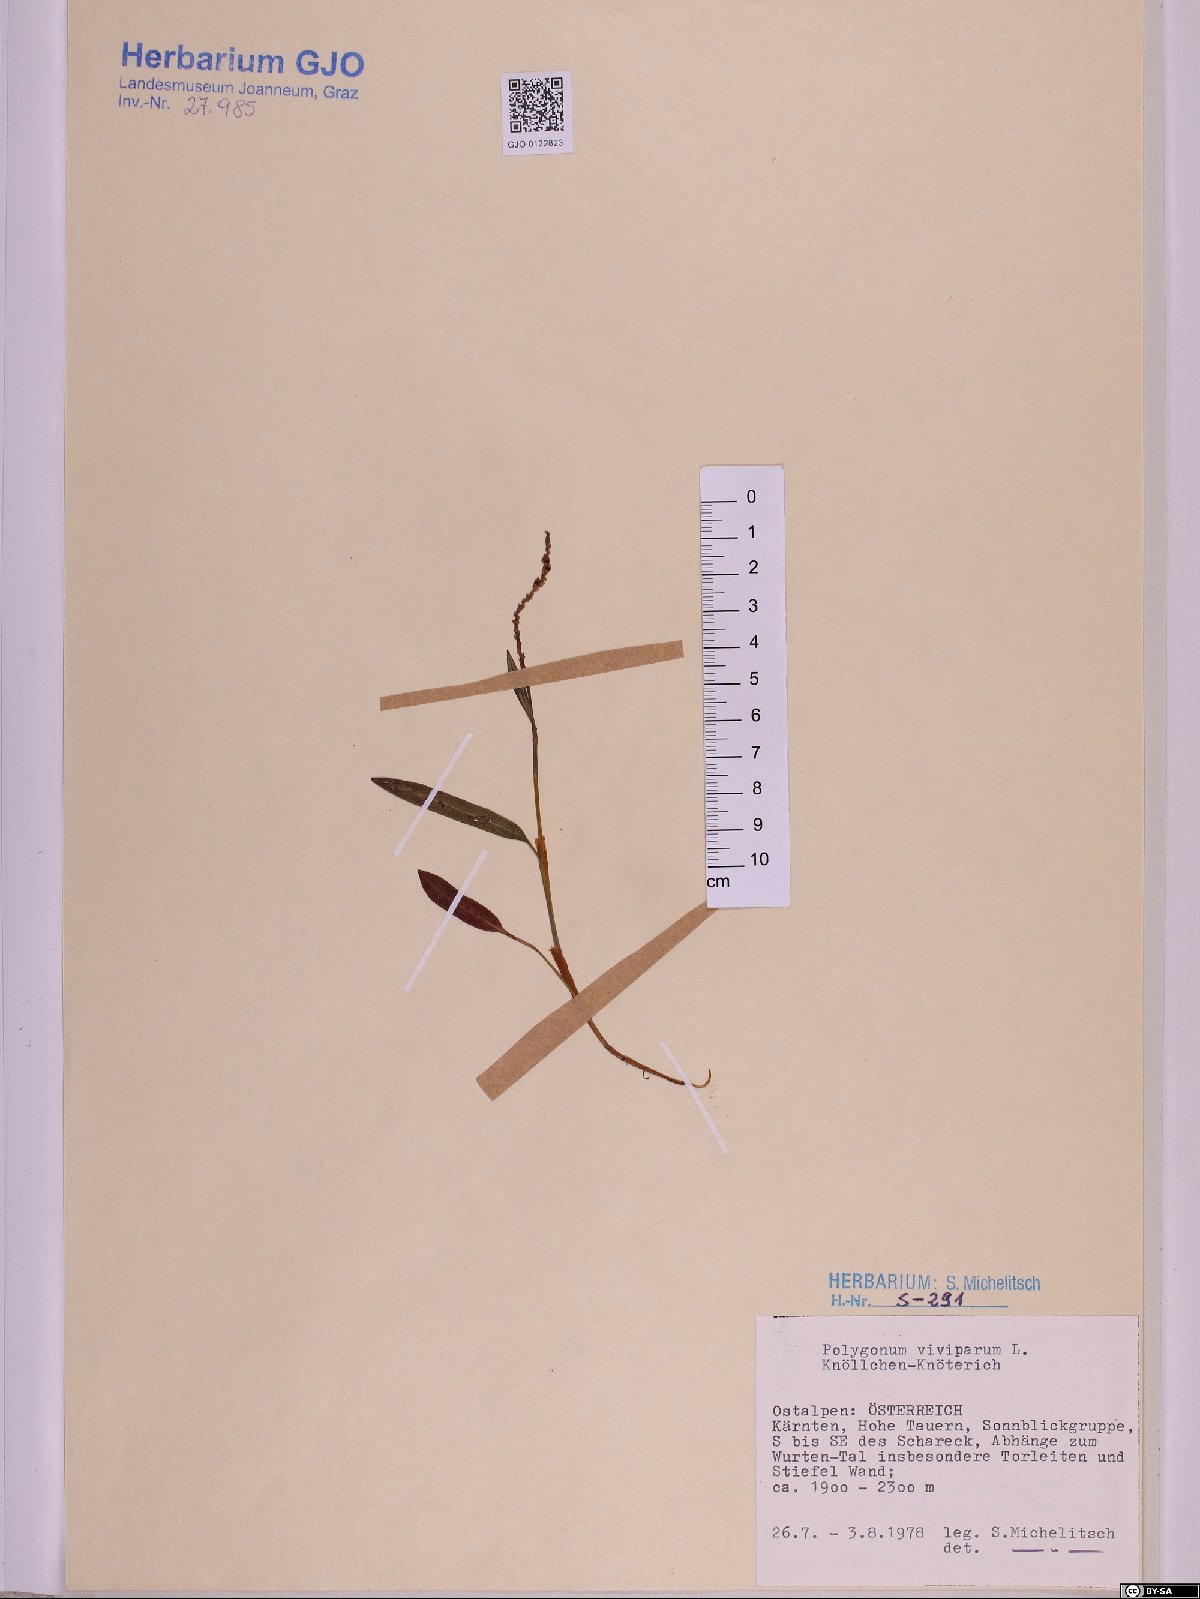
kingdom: Plantae
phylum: Tracheophyta
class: Magnoliopsida
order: Caryophyllales
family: Polygonaceae
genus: Bistorta
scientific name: Bistorta vivipara
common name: Alpine bistort
